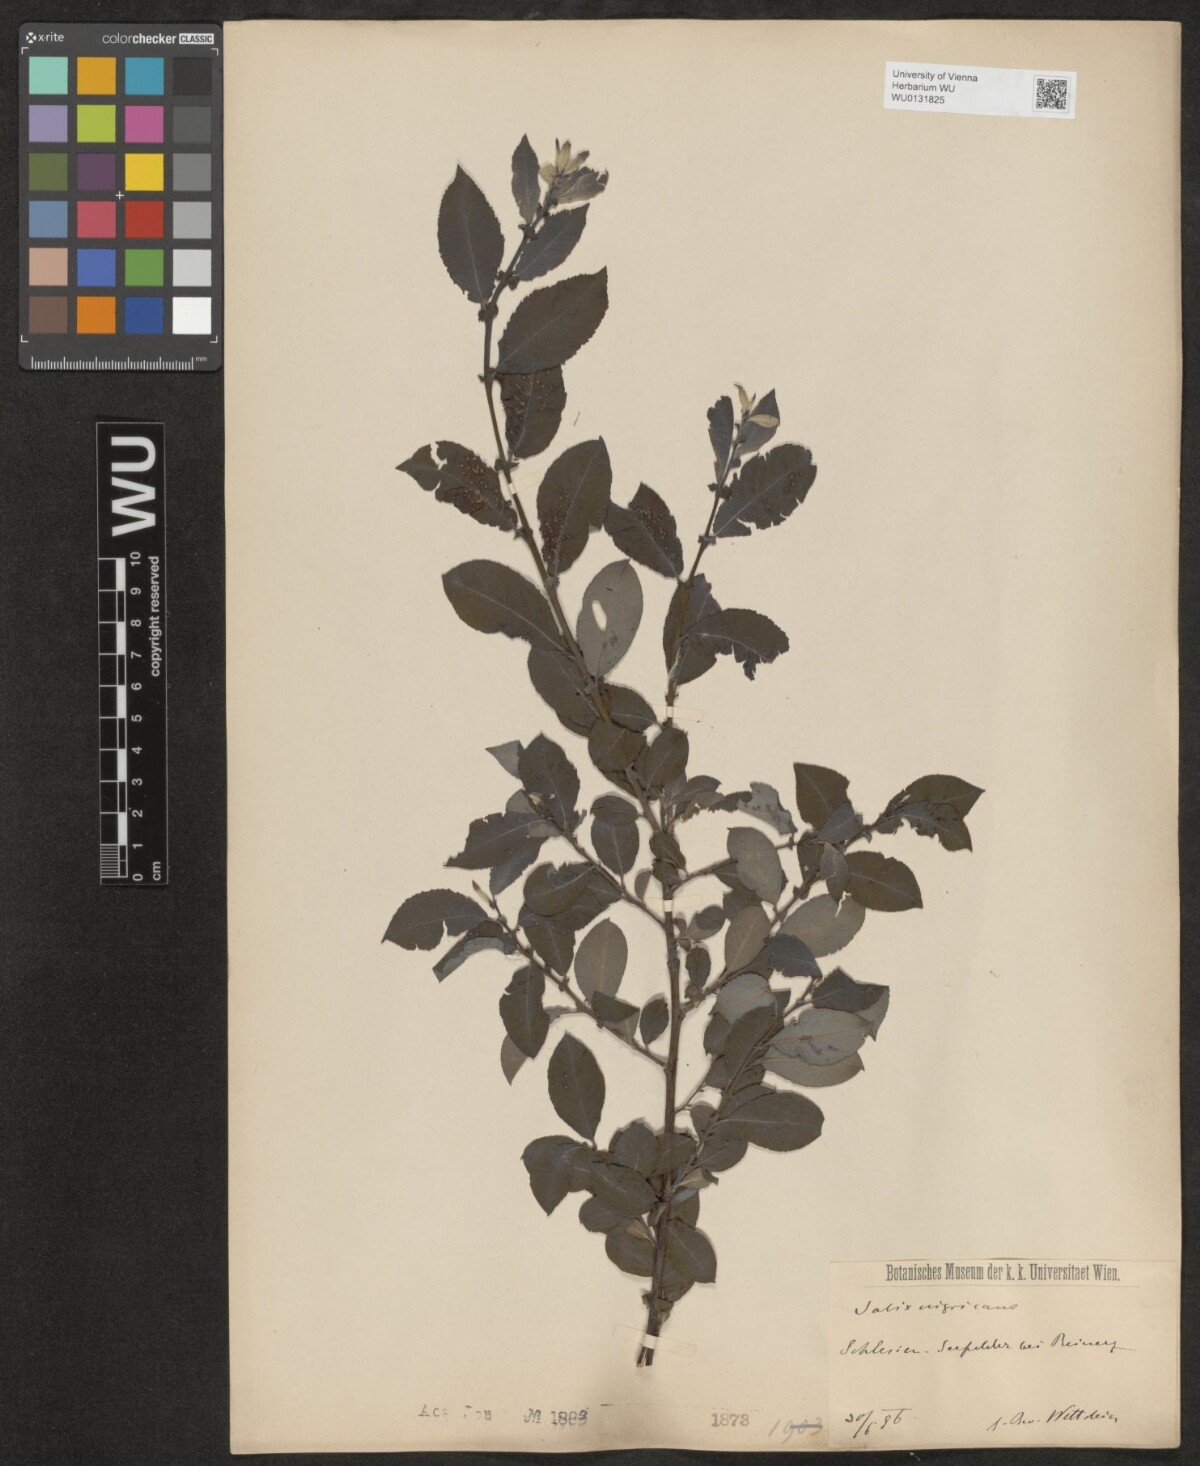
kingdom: Plantae
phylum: Tracheophyta
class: Magnoliopsida
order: Malpighiales
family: Salicaceae
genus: Salix
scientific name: Salix myrsinifolia
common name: Dark-leaved willow
